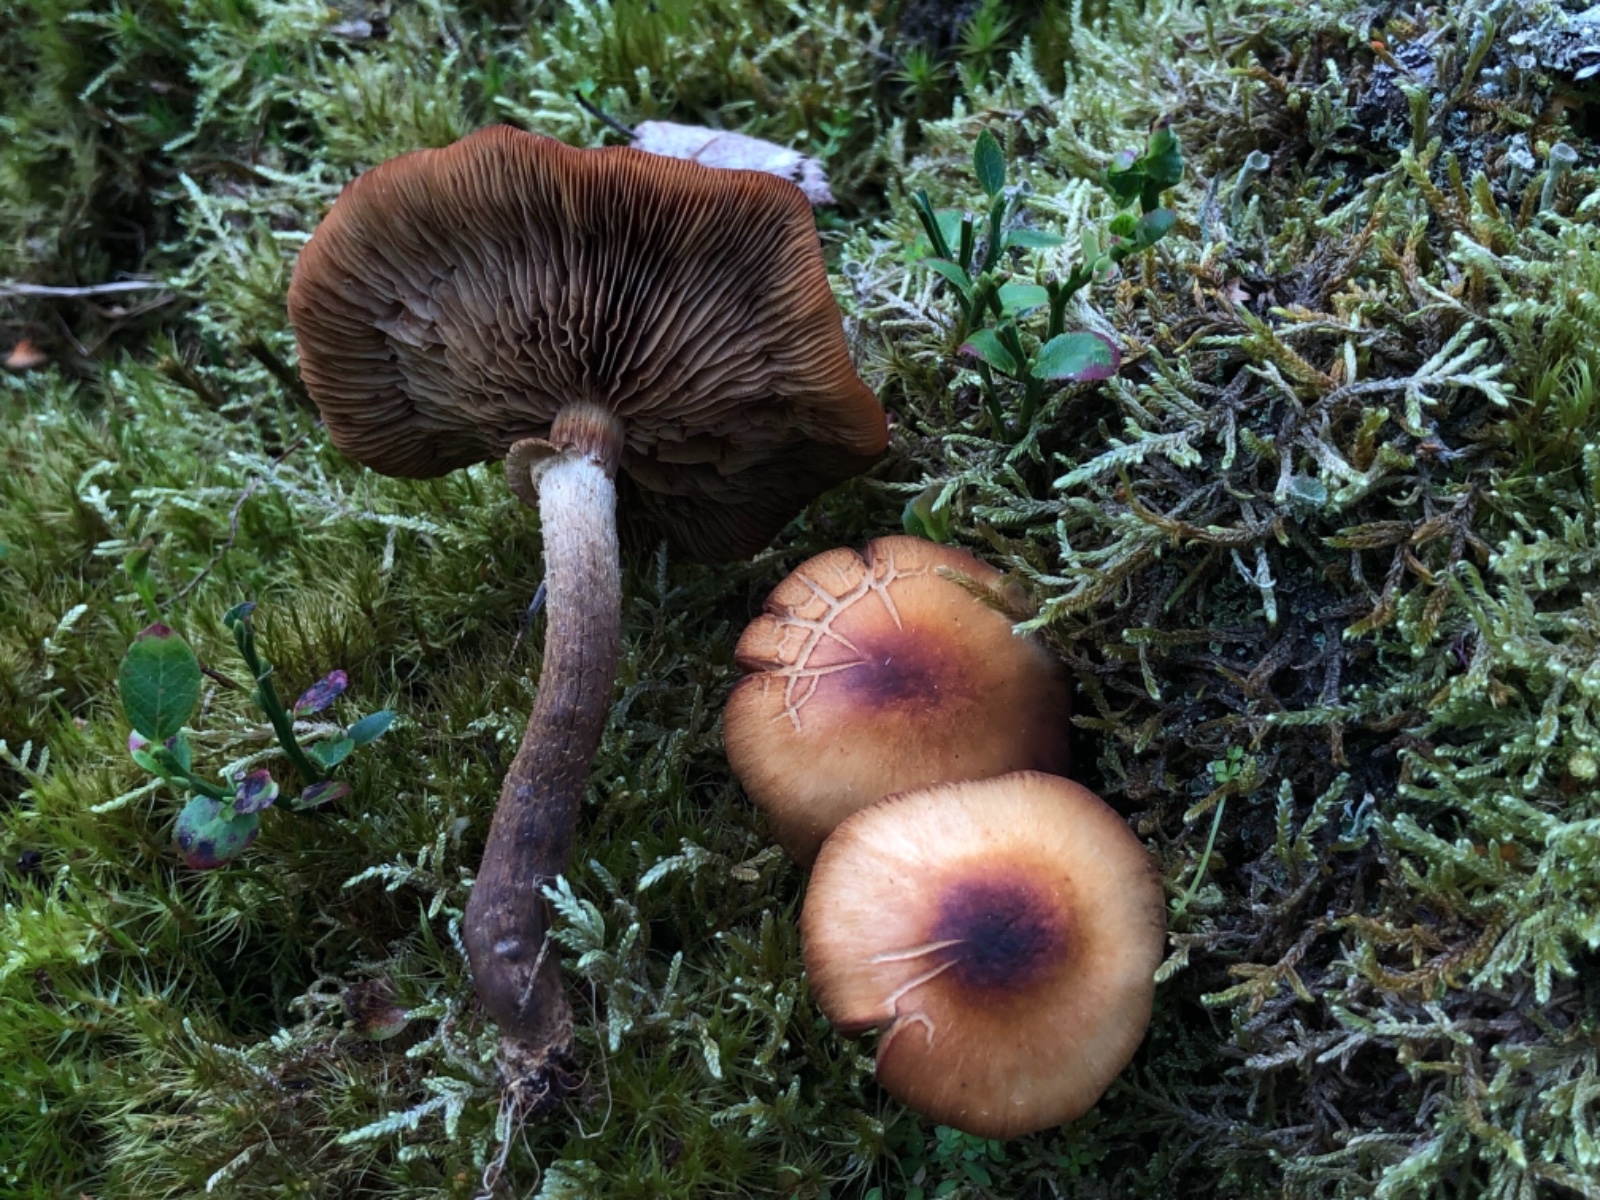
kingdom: Fungi
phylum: Basidiomycota
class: Agaricomycetes
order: Agaricales
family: Strophariaceae
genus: Kuehneromyces
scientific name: Kuehneromyces mutabilis
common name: foranderlig skælhat
